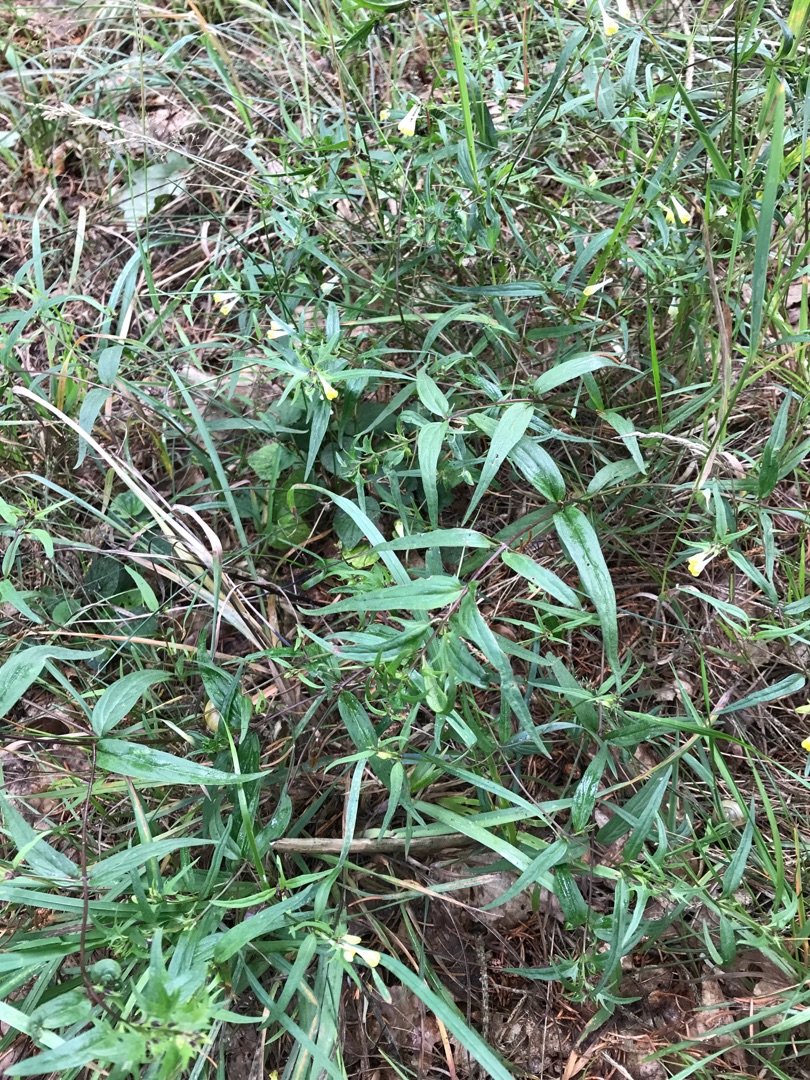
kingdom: Plantae
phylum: Tracheophyta
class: Magnoliopsida
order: Lamiales
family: Orobanchaceae
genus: Melampyrum
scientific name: Melampyrum pratense
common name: Almindelig kohvede
